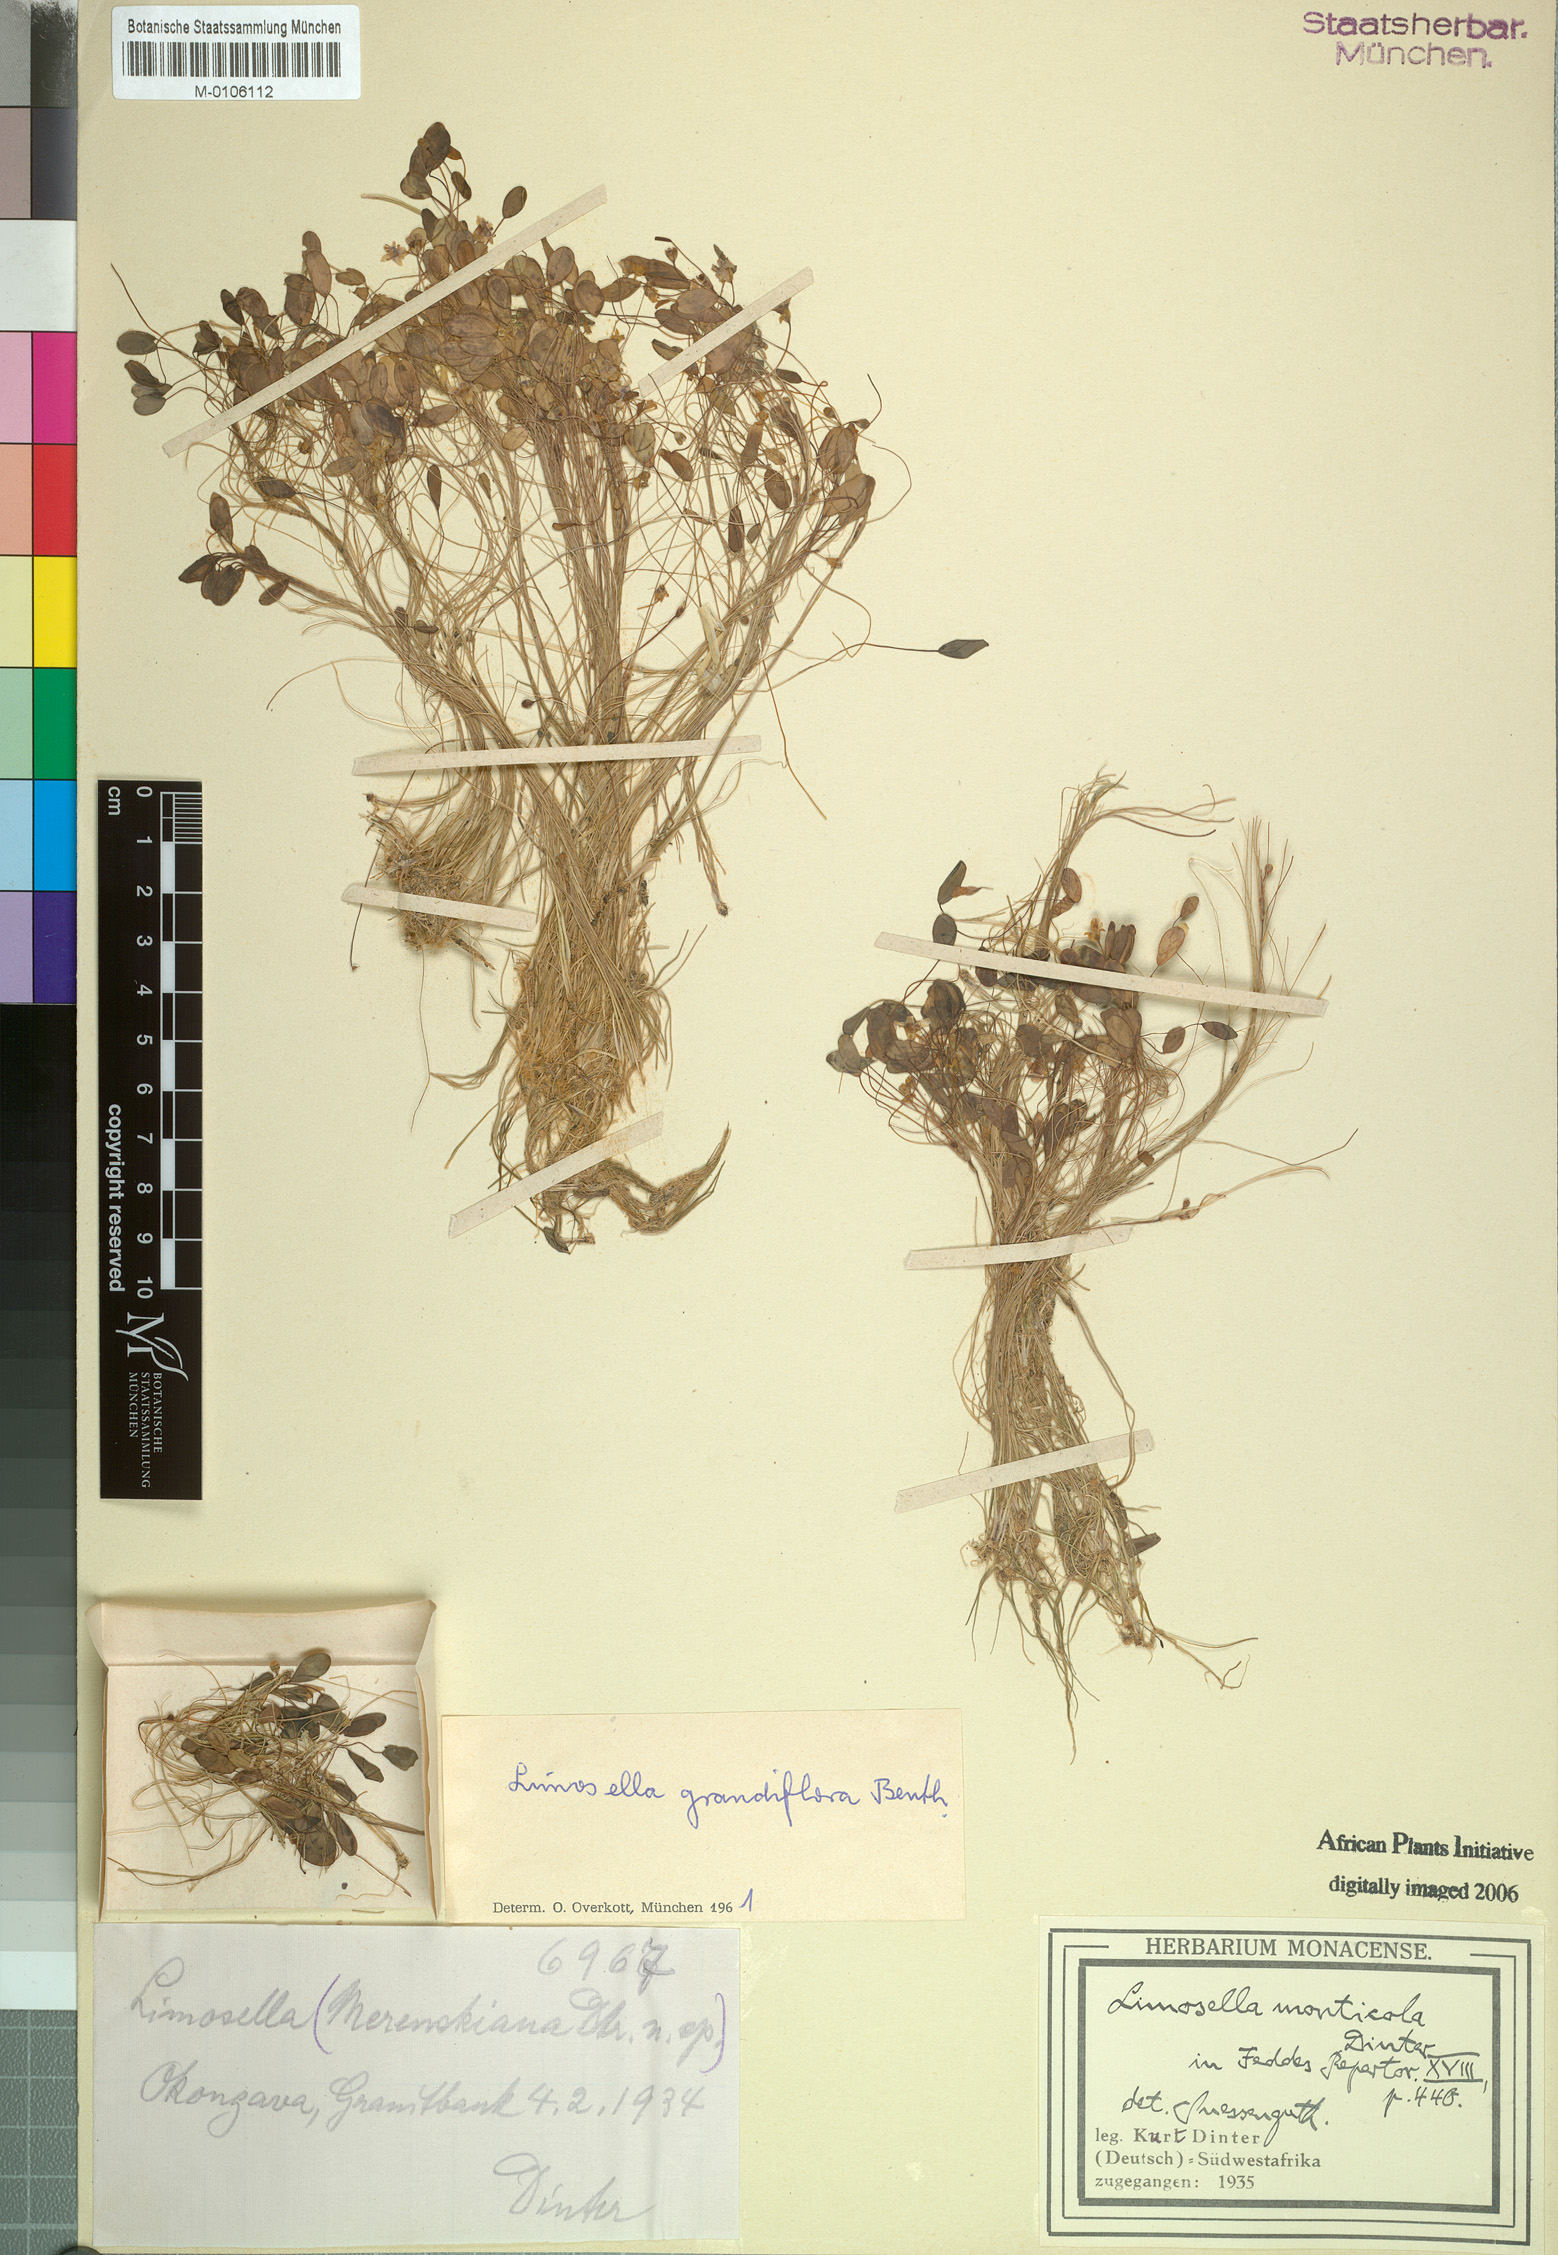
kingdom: Plantae
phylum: Tracheophyta
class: Magnoliopsida
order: Lamiales
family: Scrophulariaceae
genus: Limosella
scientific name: Limosella grandiflora
